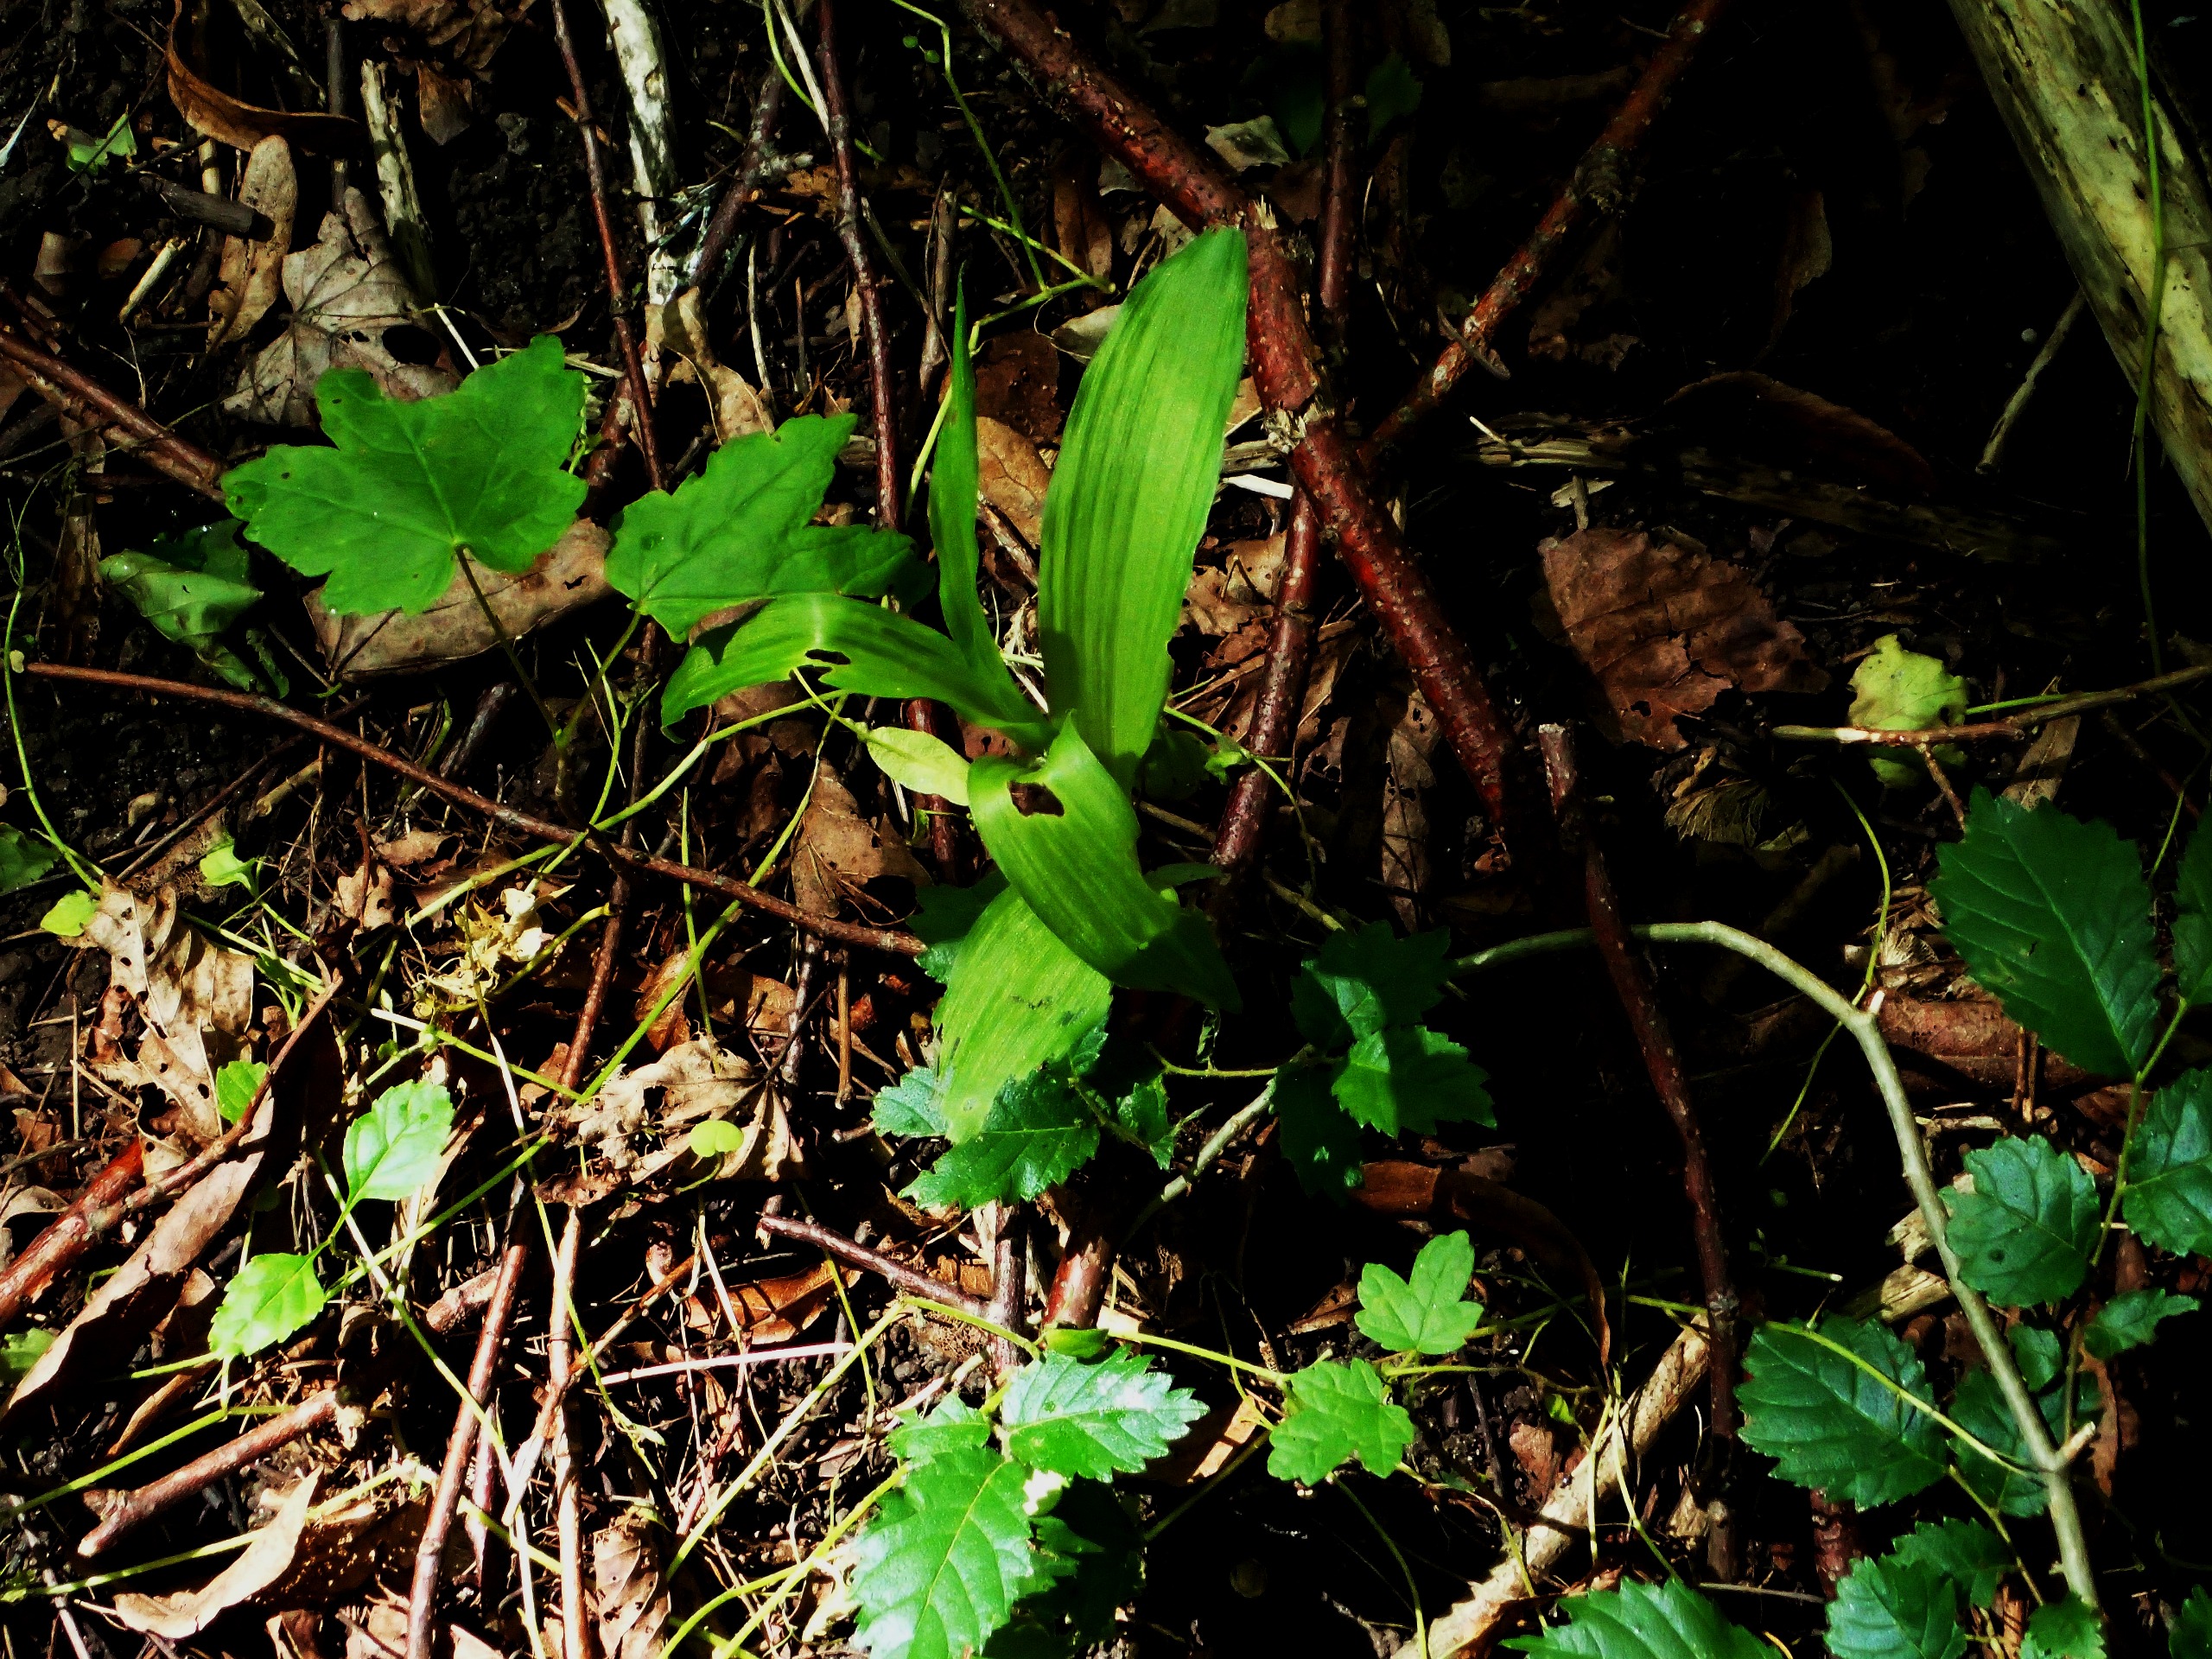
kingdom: Plantae
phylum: Tracheophyta
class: Liliopsida
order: Asparagales
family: Orchidaceae
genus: Epipactis
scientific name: Epipactis helleborine
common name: Skov-hullæbe
